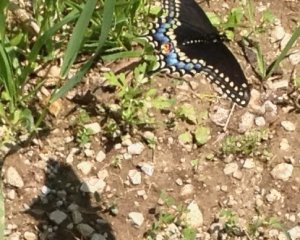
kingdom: Animalia
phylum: Arthropoda
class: Insecta
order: Lepidoptera
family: Papilionidae
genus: Papilio
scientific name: Papilio polyxenes
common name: Black Swallowtail
